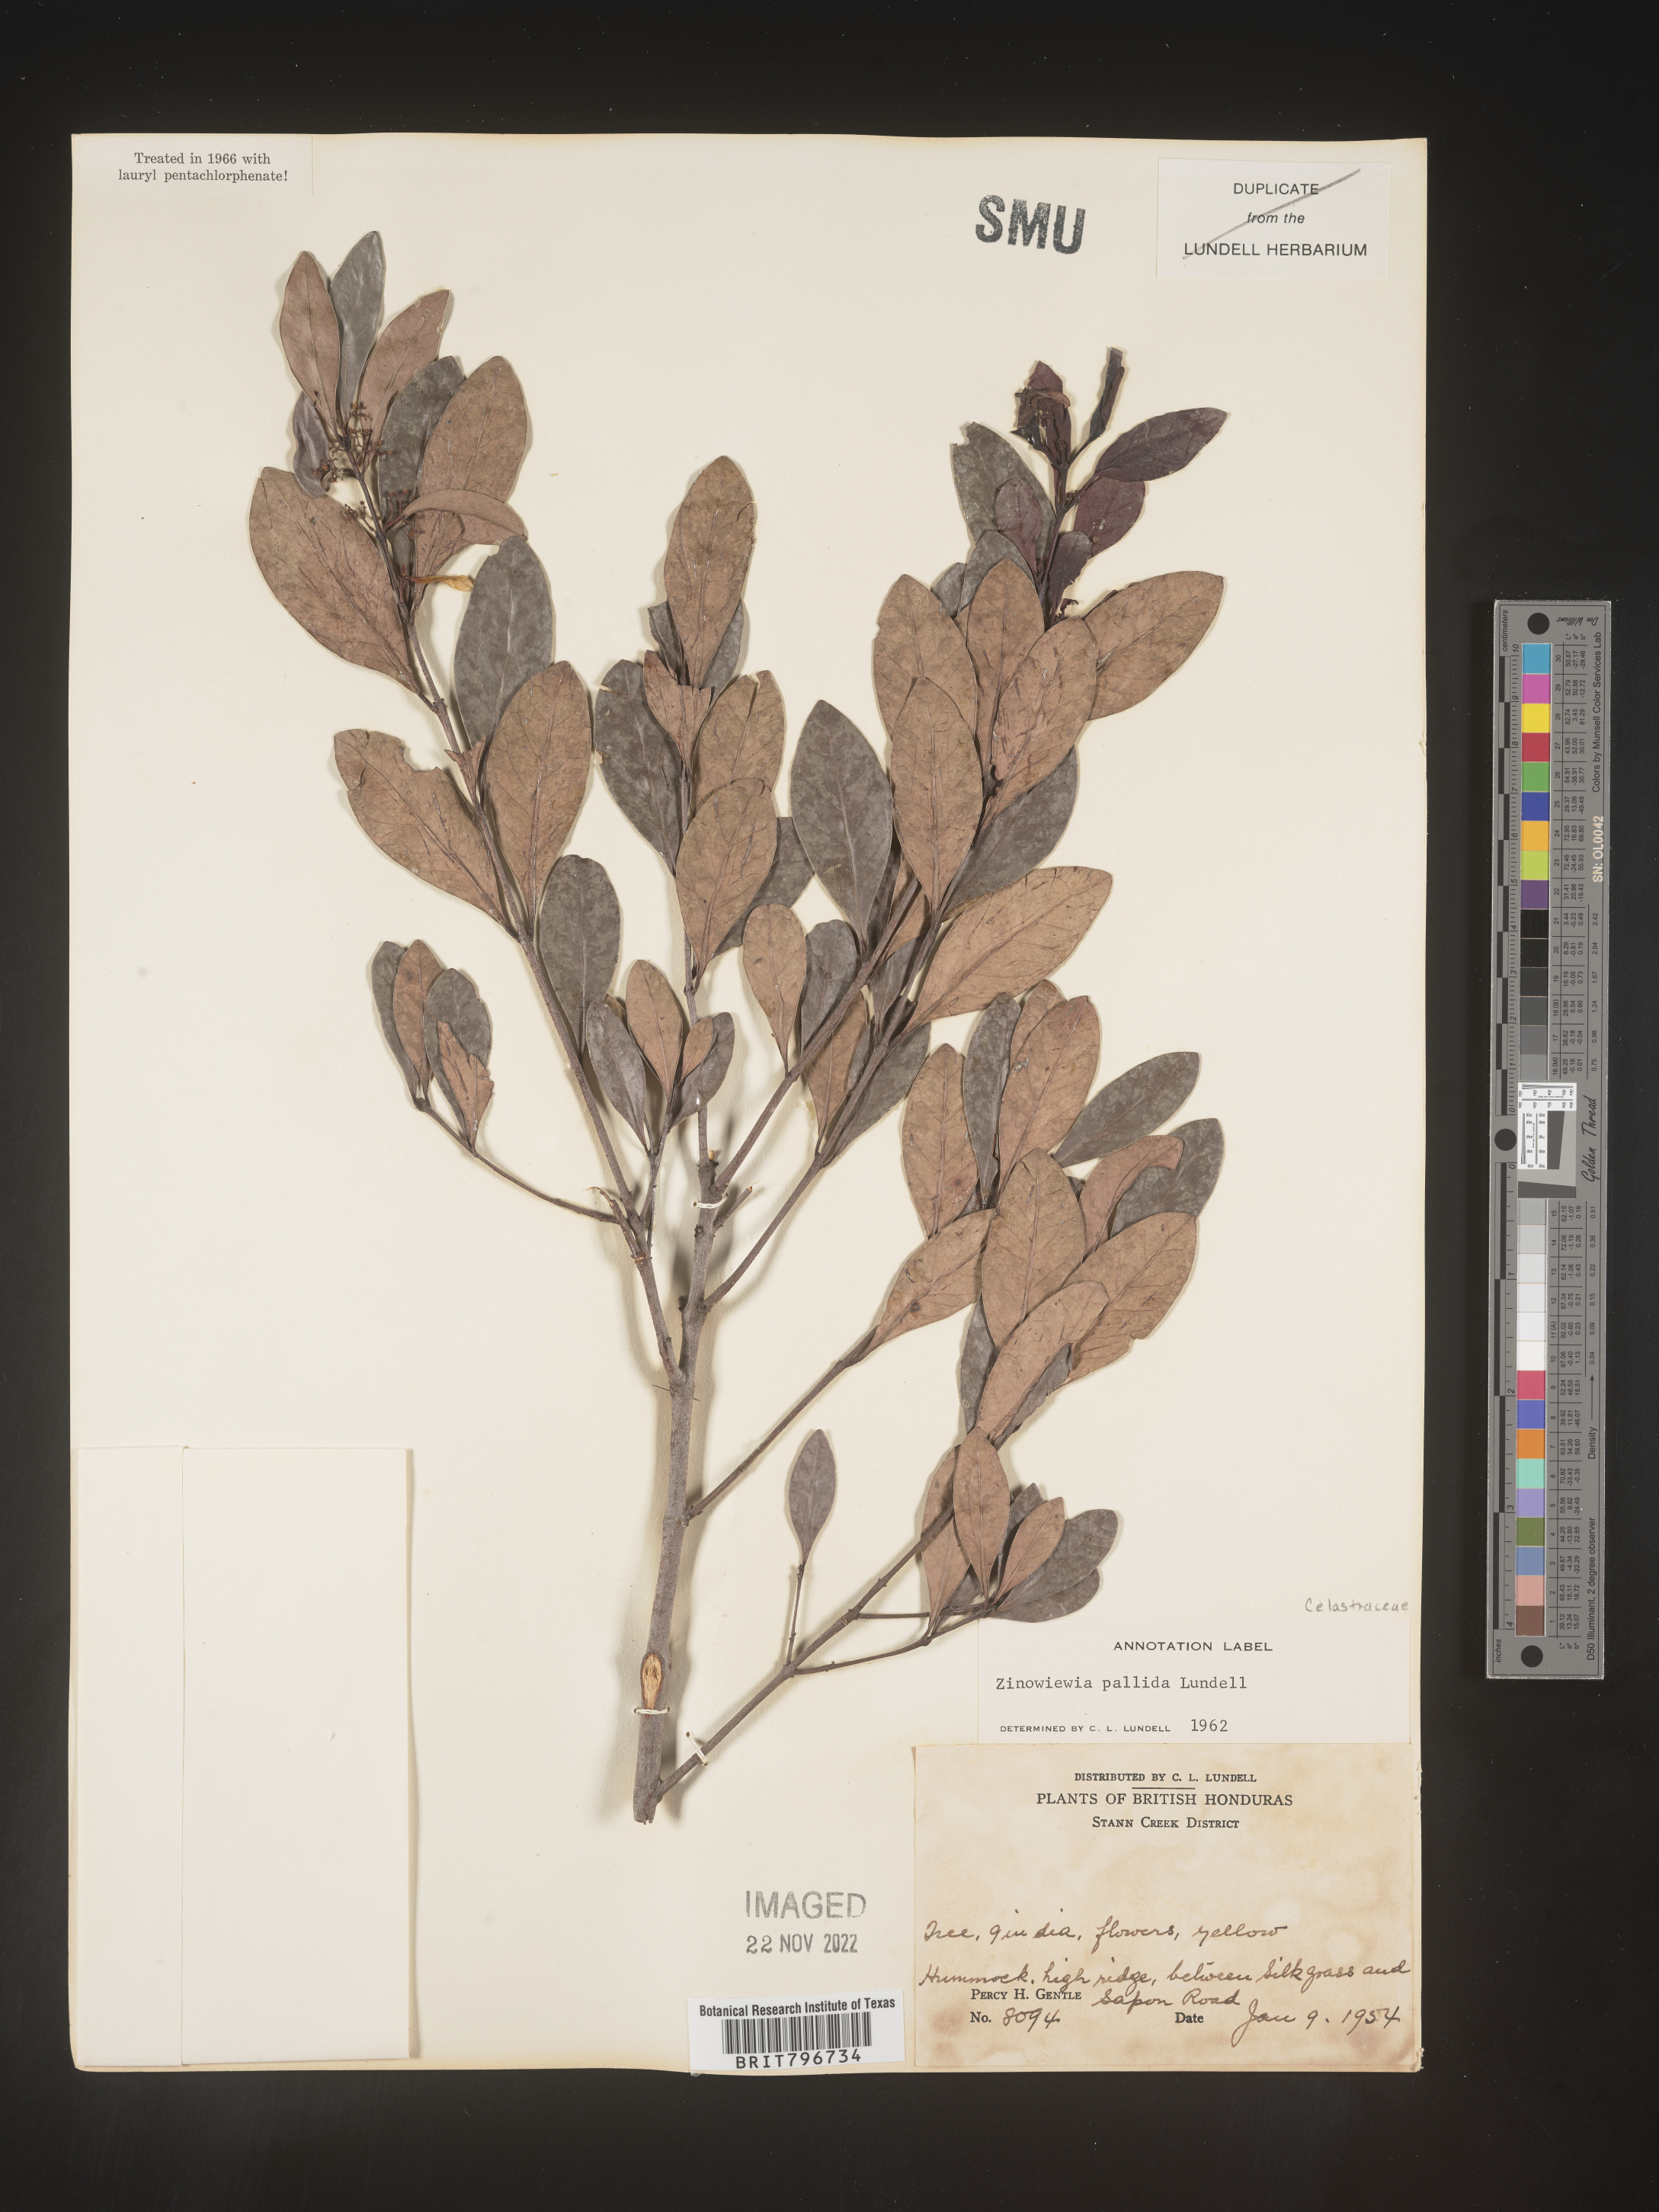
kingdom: Plantae
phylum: Tracheophyta
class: Magnoliopsida
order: Celastrales
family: Celastraceae
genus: Zinowiewia
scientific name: Zinowiewia
